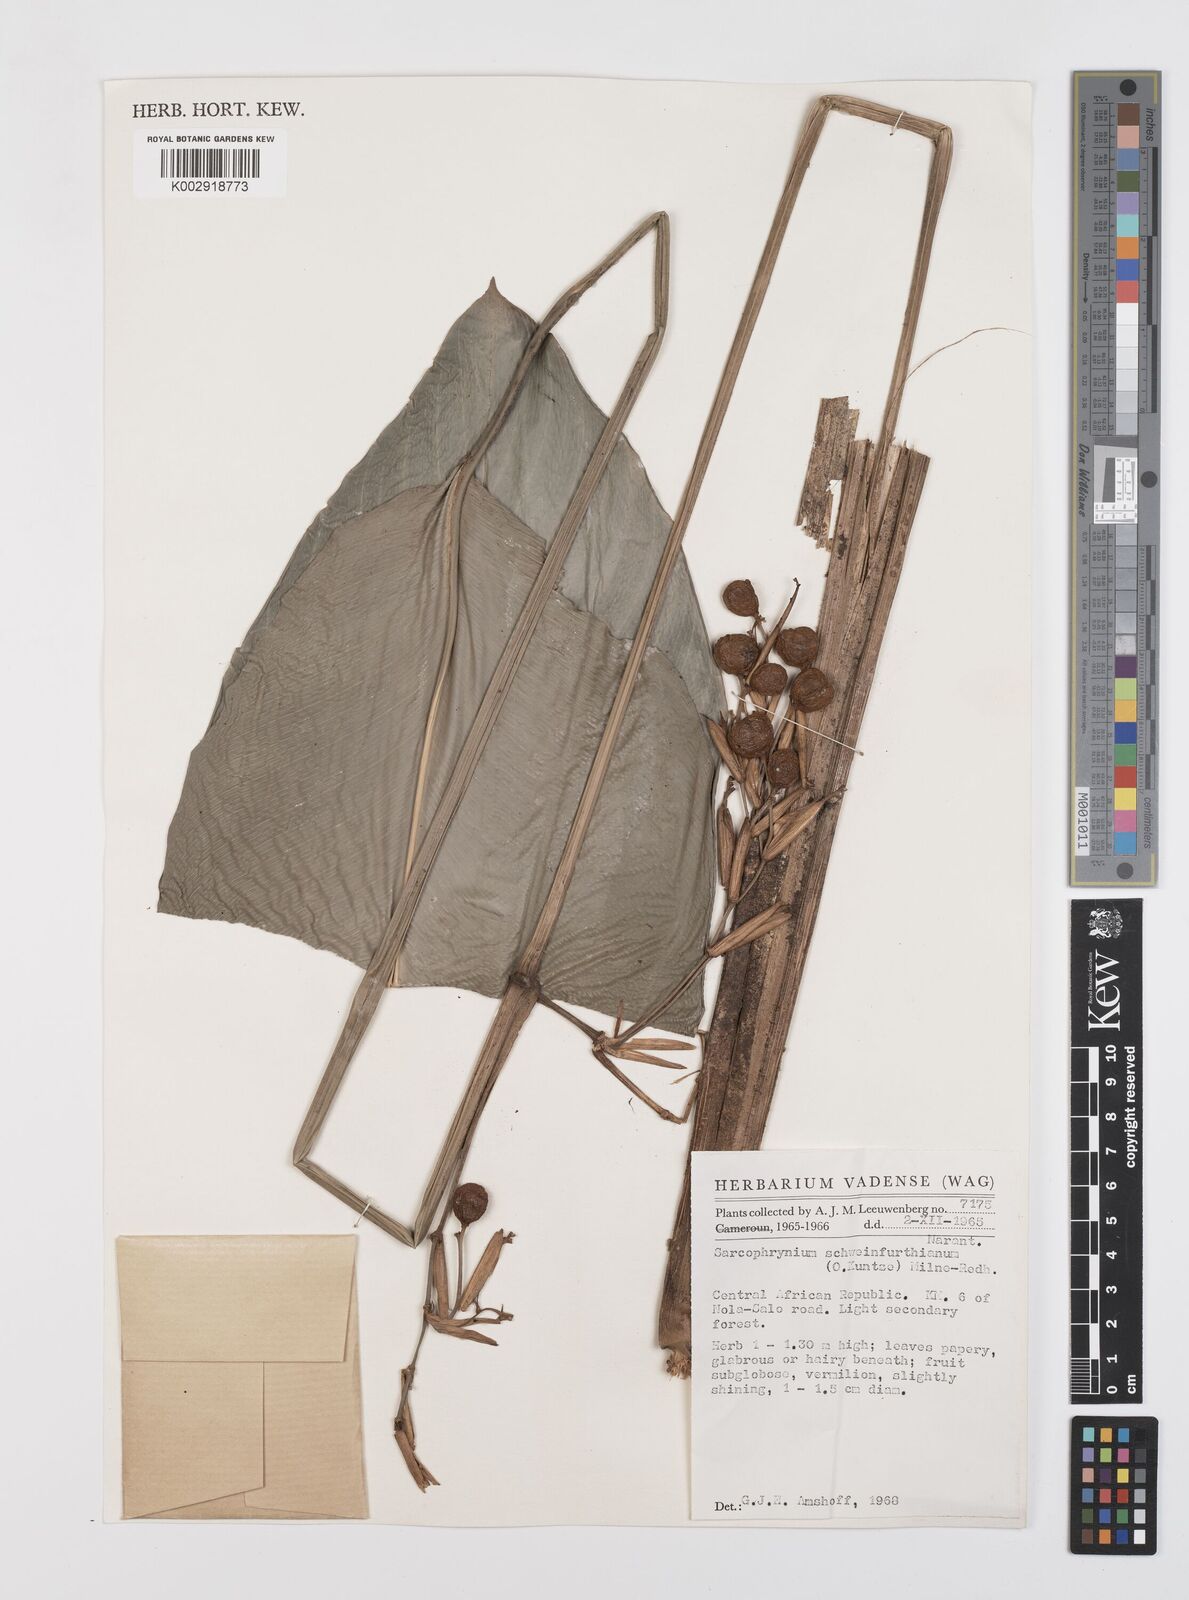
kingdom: Plantae
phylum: Tracheophyta
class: Liliopsida
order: Zingiberales
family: Marantaceae
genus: Sarcophrynium
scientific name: Sarcophrynium schweinfurthianum
